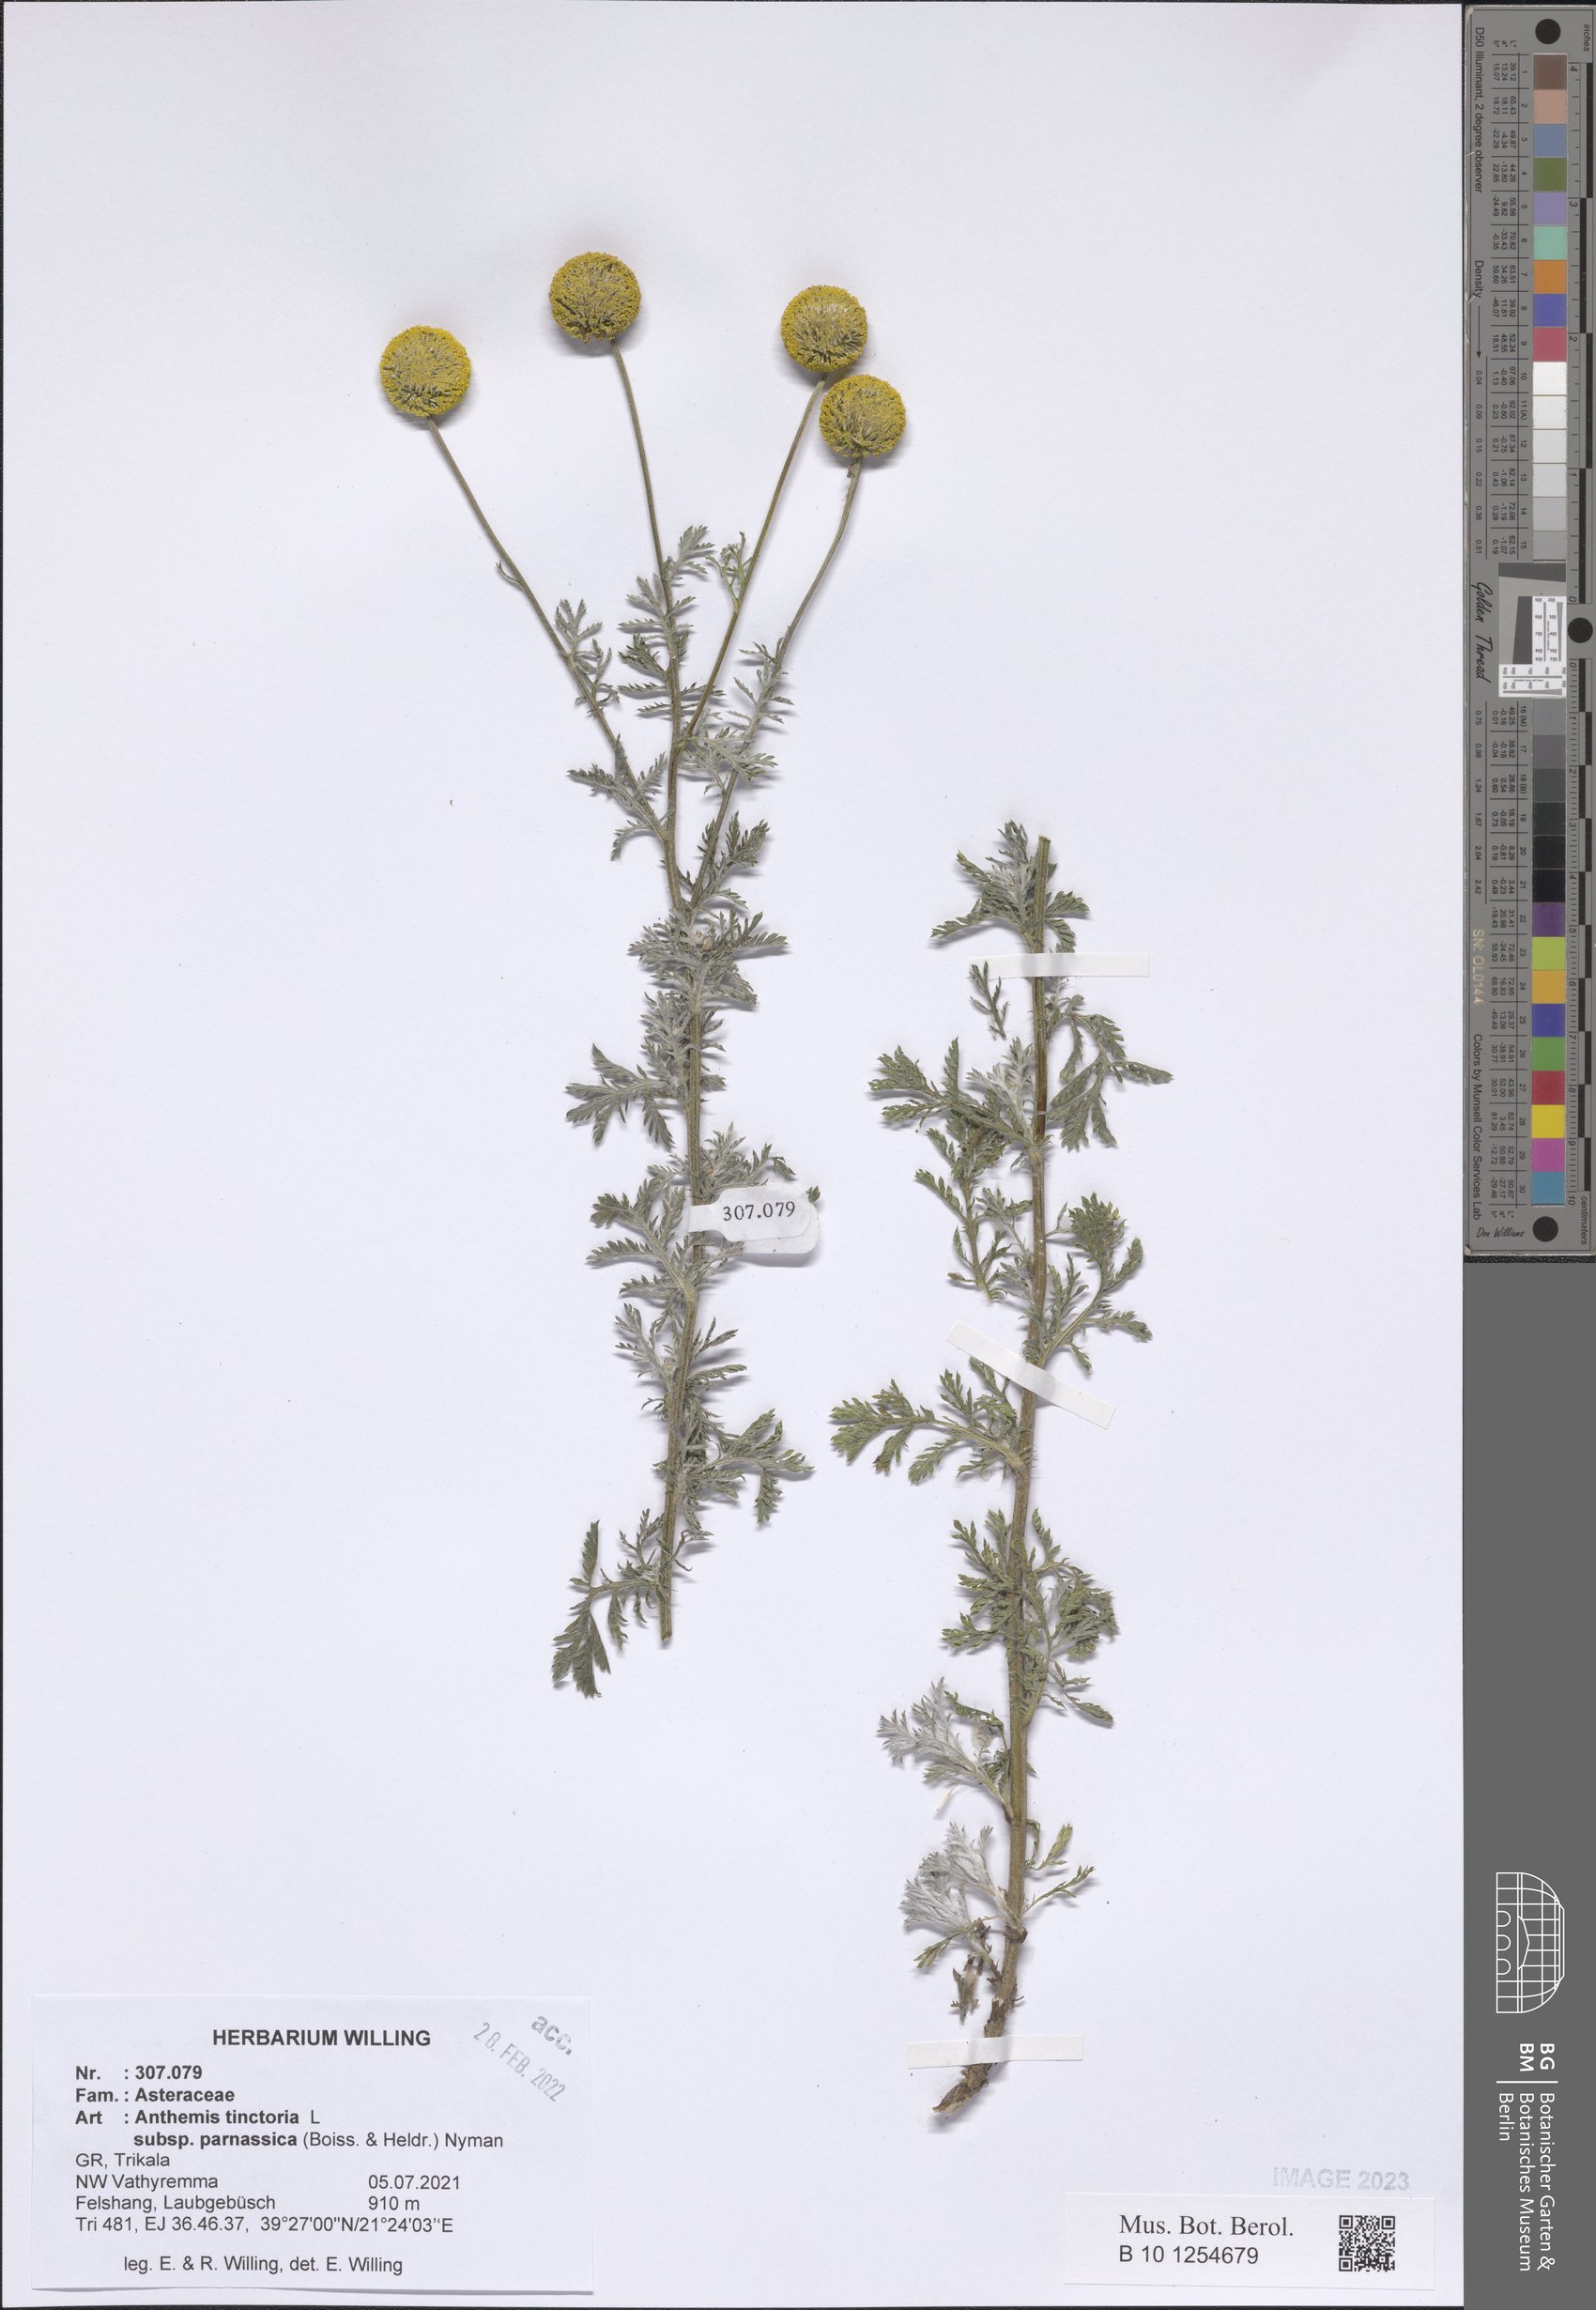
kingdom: Plantae
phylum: Tracheophyta
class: Magnoliopsida
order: Asterales
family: Asteraceae
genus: Cota
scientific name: Cota tinctoria
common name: Golden chamomile
